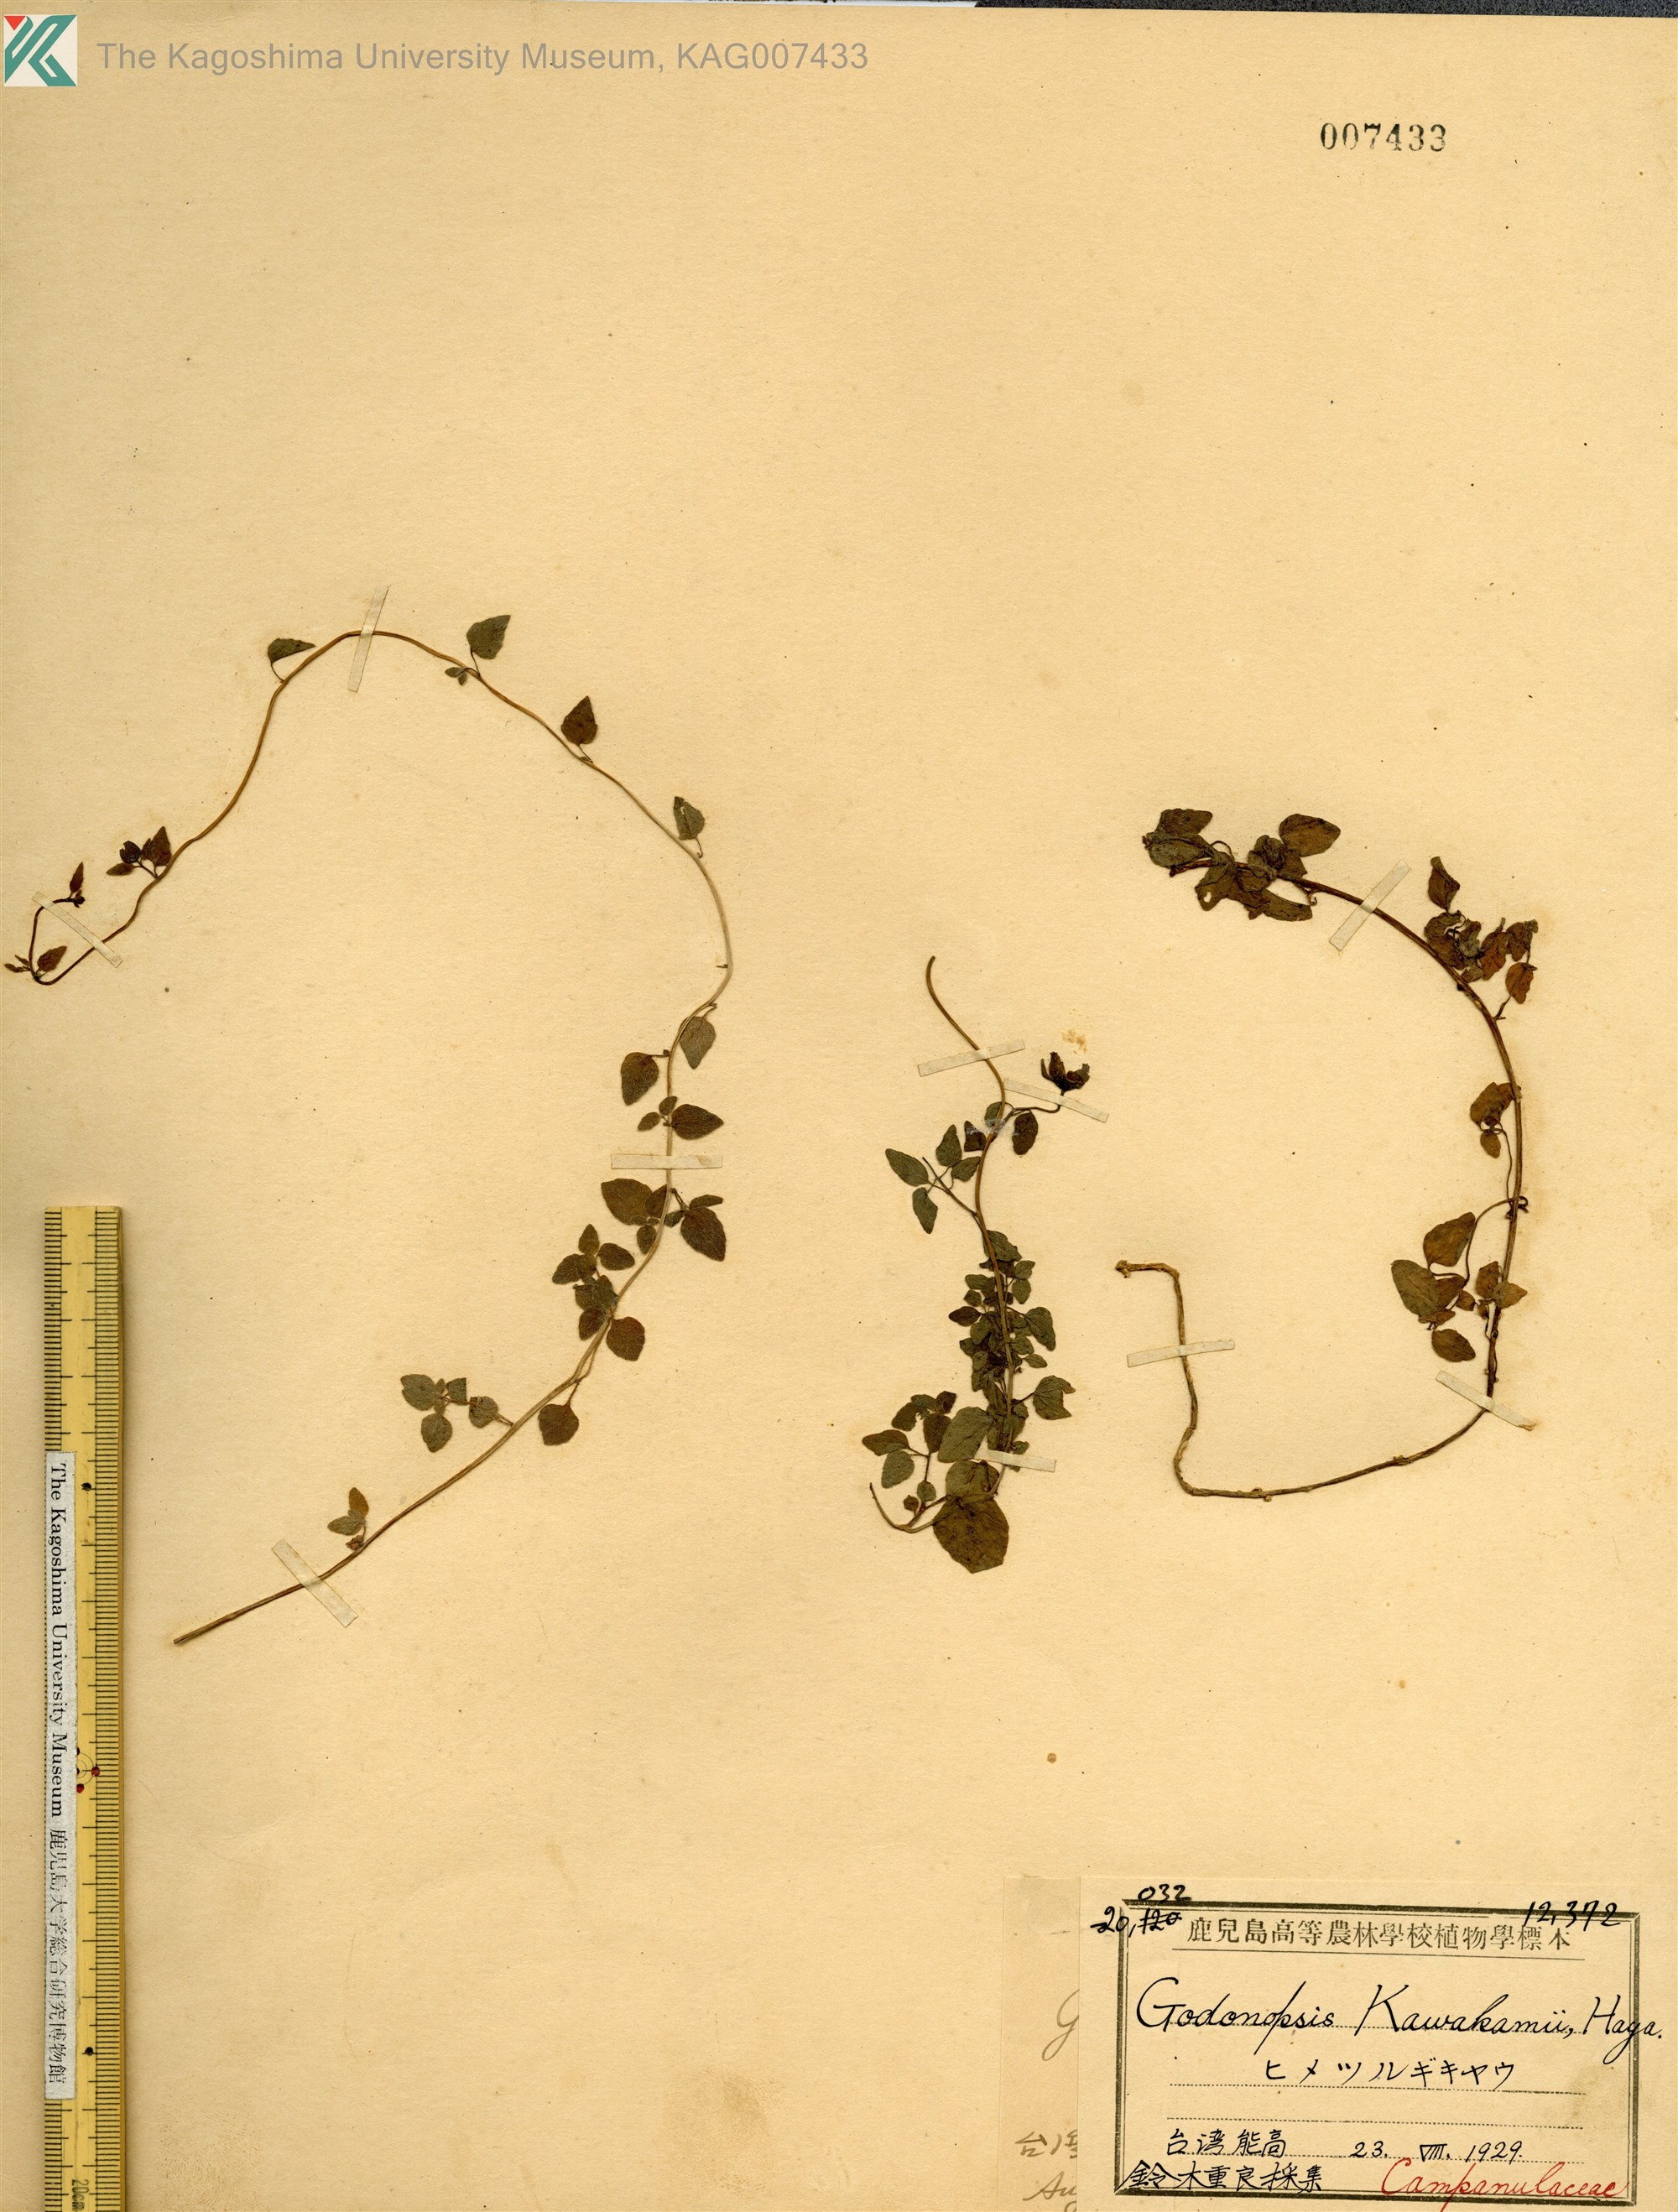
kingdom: Plantae
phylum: Tracheophyta
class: Magnoliopsida
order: Asterales
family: Campanulaceae
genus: Codonopsis
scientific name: Codonopsis kawakamii
